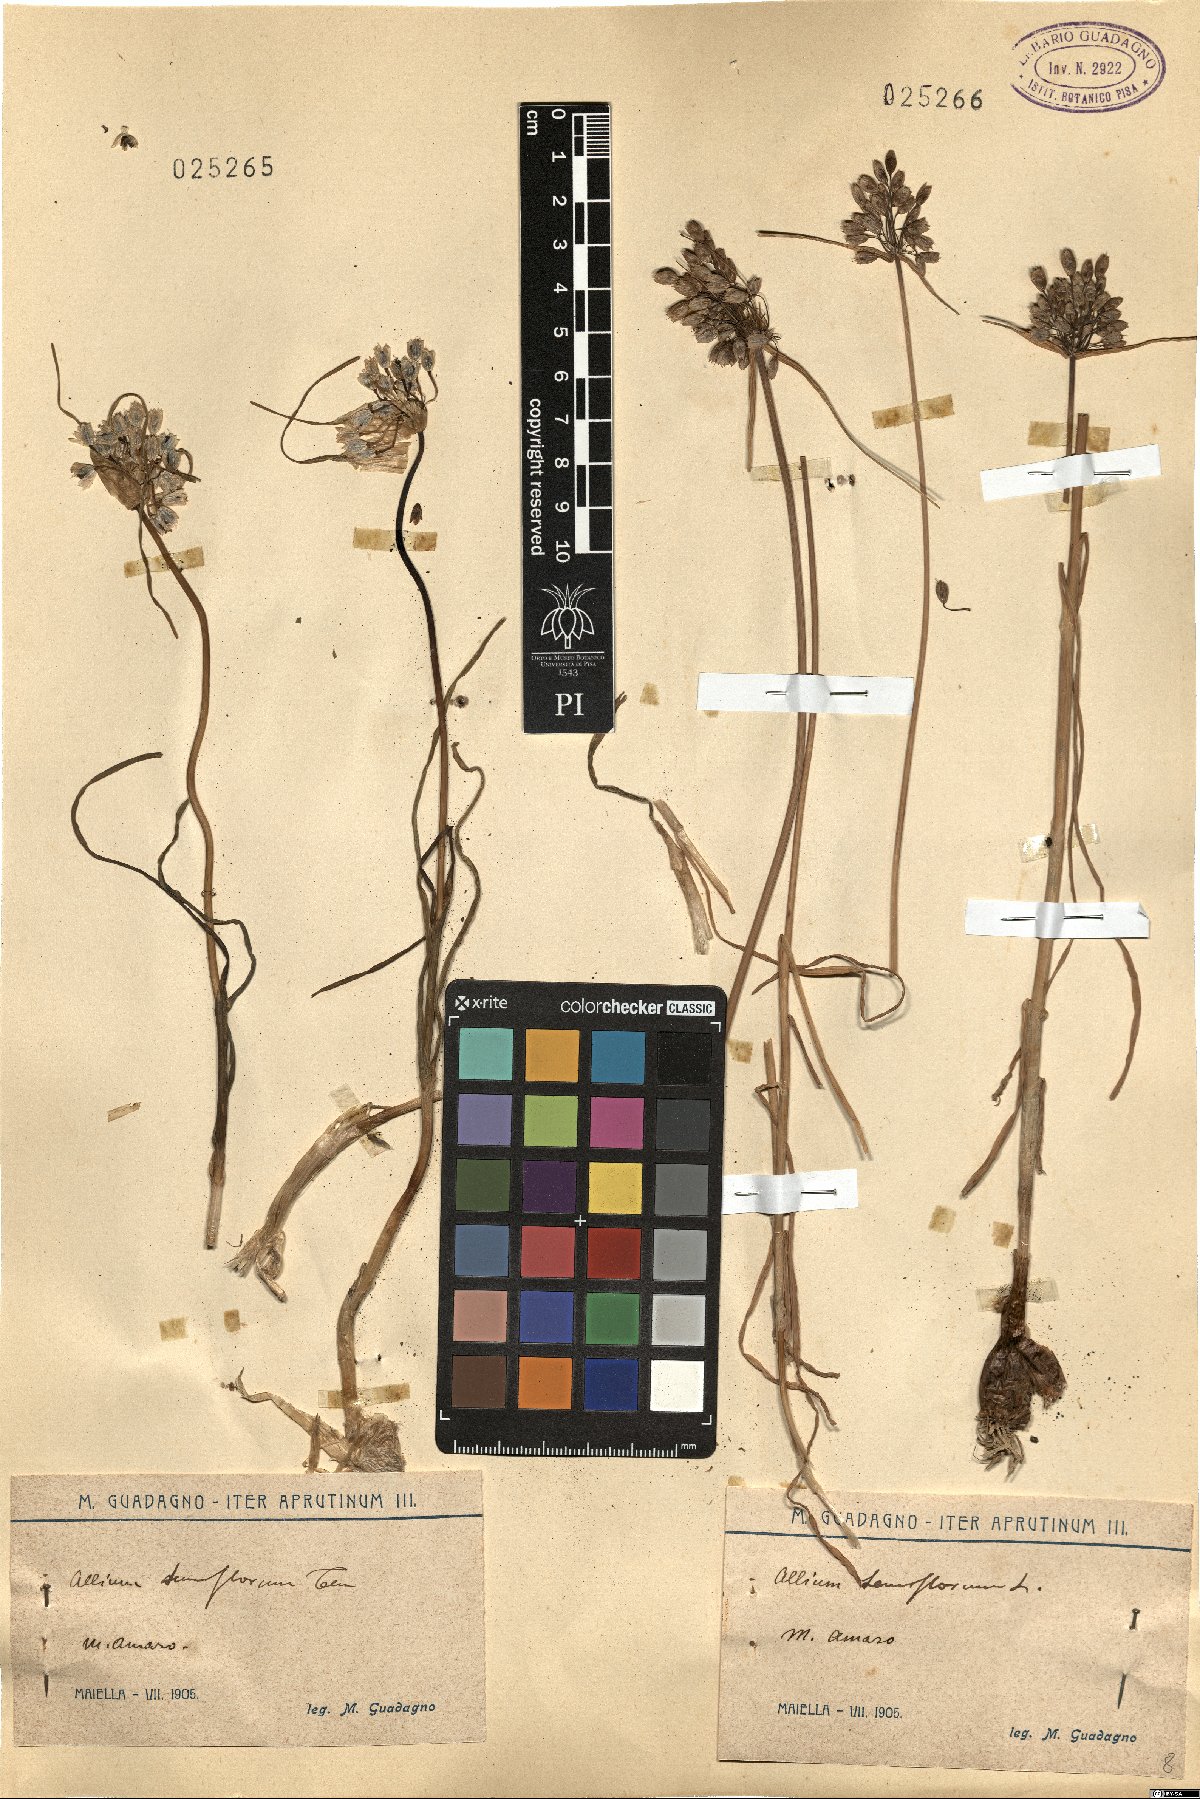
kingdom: Plantae
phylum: Tracheophyta
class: Liliopsida
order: Asparagales
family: Amaryllidaceae
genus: Allium
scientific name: Allium tenuiflorum
